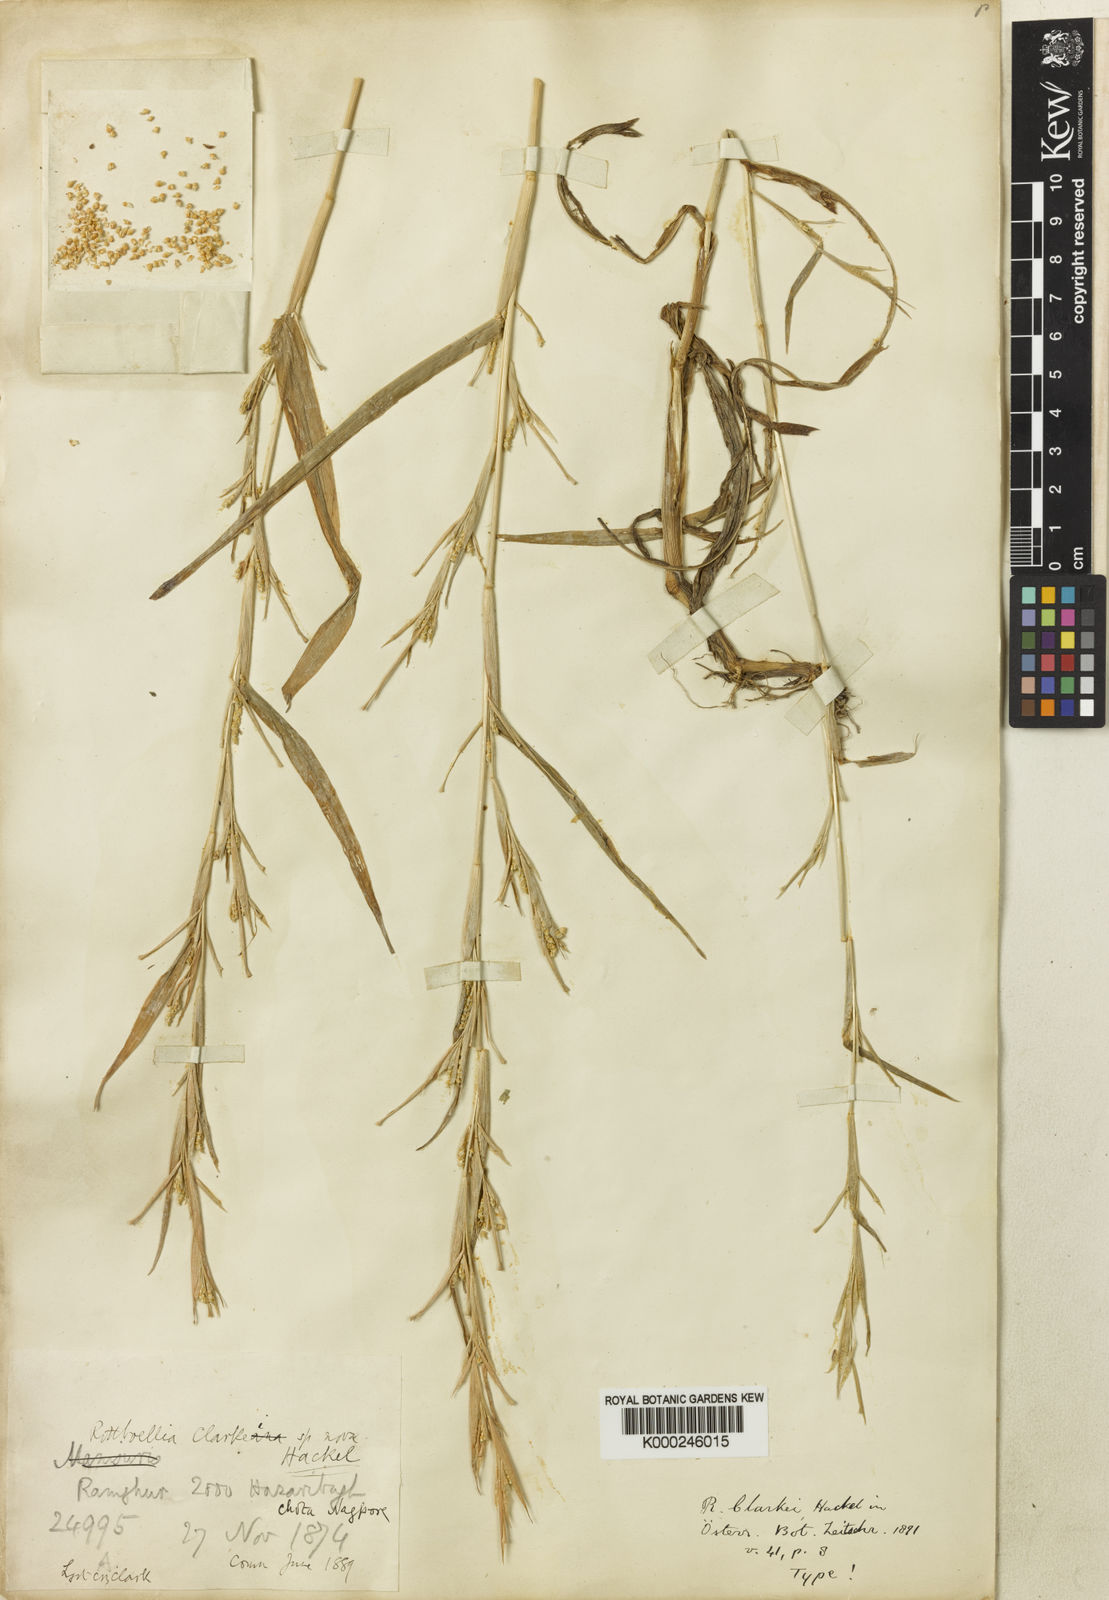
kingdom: Plantae
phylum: Tracheophyta
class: Liliopsida
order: Poales
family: Poaceae
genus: Rottboellia
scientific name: Rottboellia clarkei
